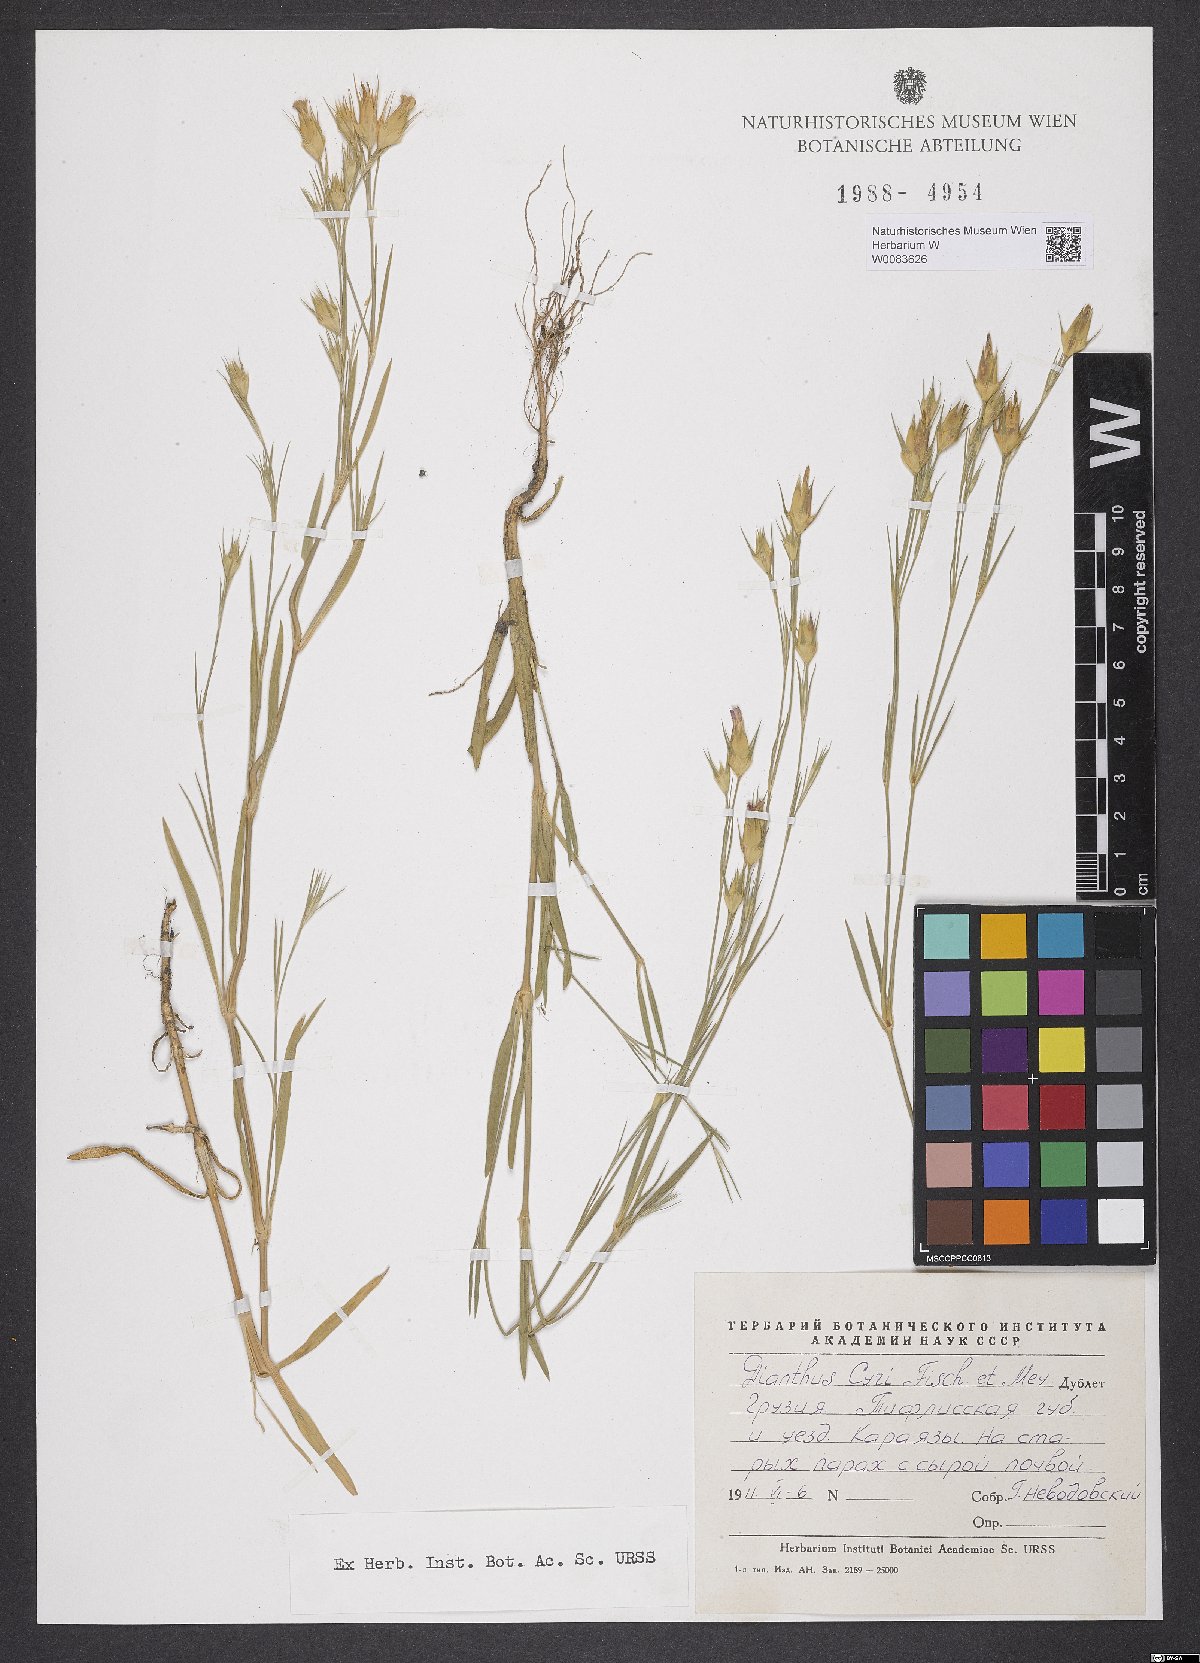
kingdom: Plantae
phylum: Tracheophyta
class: Magnoliopsida
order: Caryophyllales
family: Caryophyllaceae
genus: Dianthus
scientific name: Dianthus cyri
